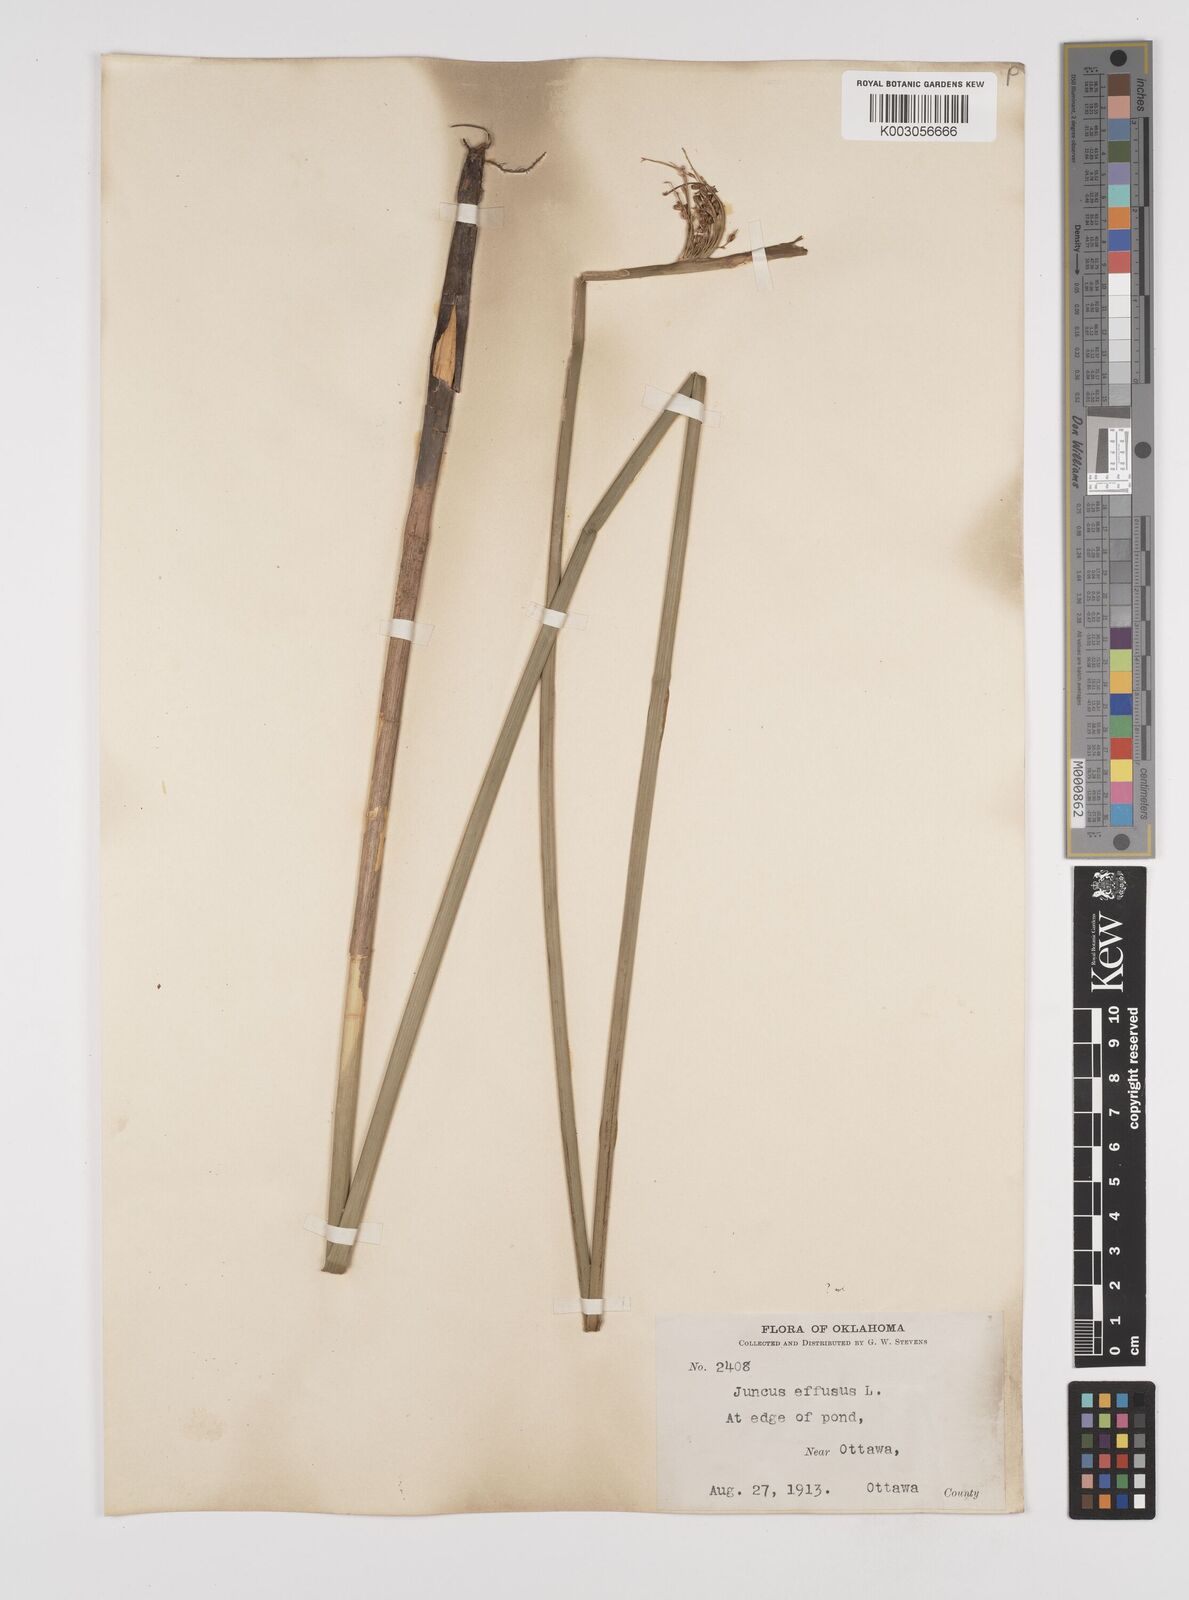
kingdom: Plantae
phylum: Tracheophyta
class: Liliopsida
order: Poales
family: Juncaceae
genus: Juncus
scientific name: Juncus effusus
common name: Soft rush
